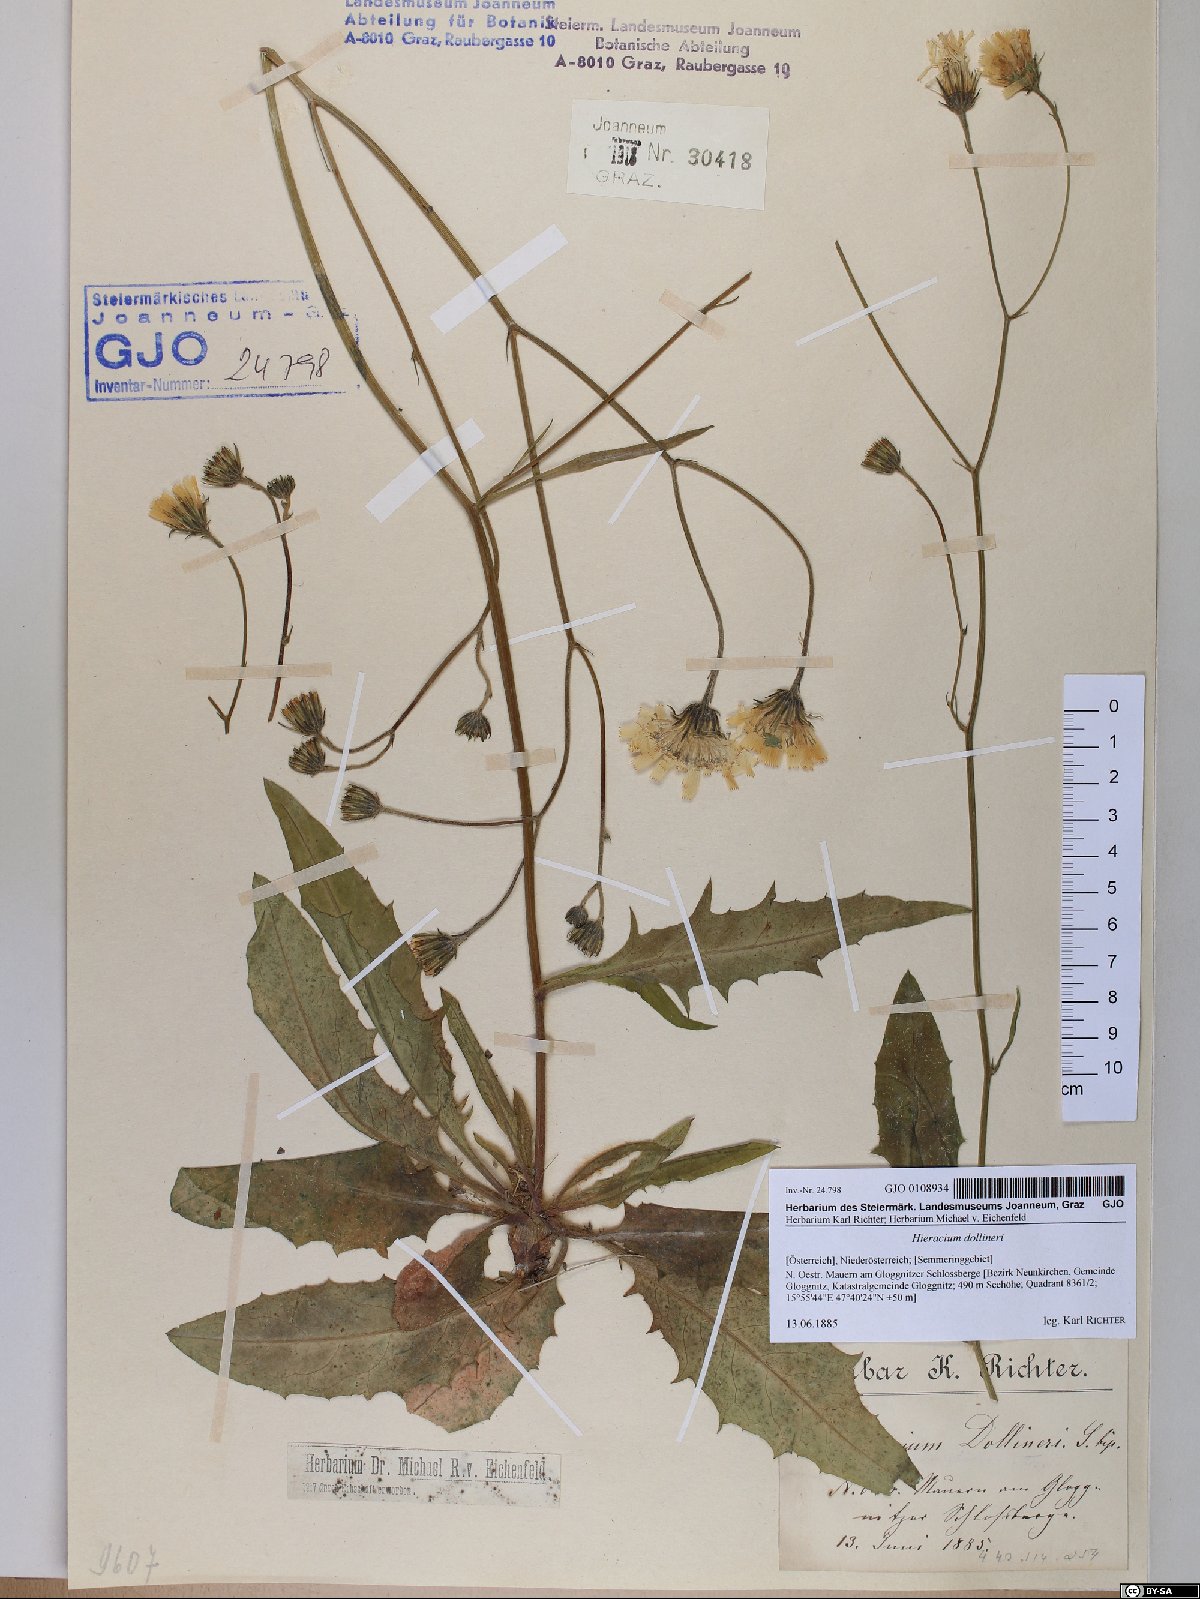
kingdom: Plantae
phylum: Tracheophyta
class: Magnoliopsida
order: Asterales
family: Asteraceae
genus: Hieracium
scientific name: Hieracium dollineri
